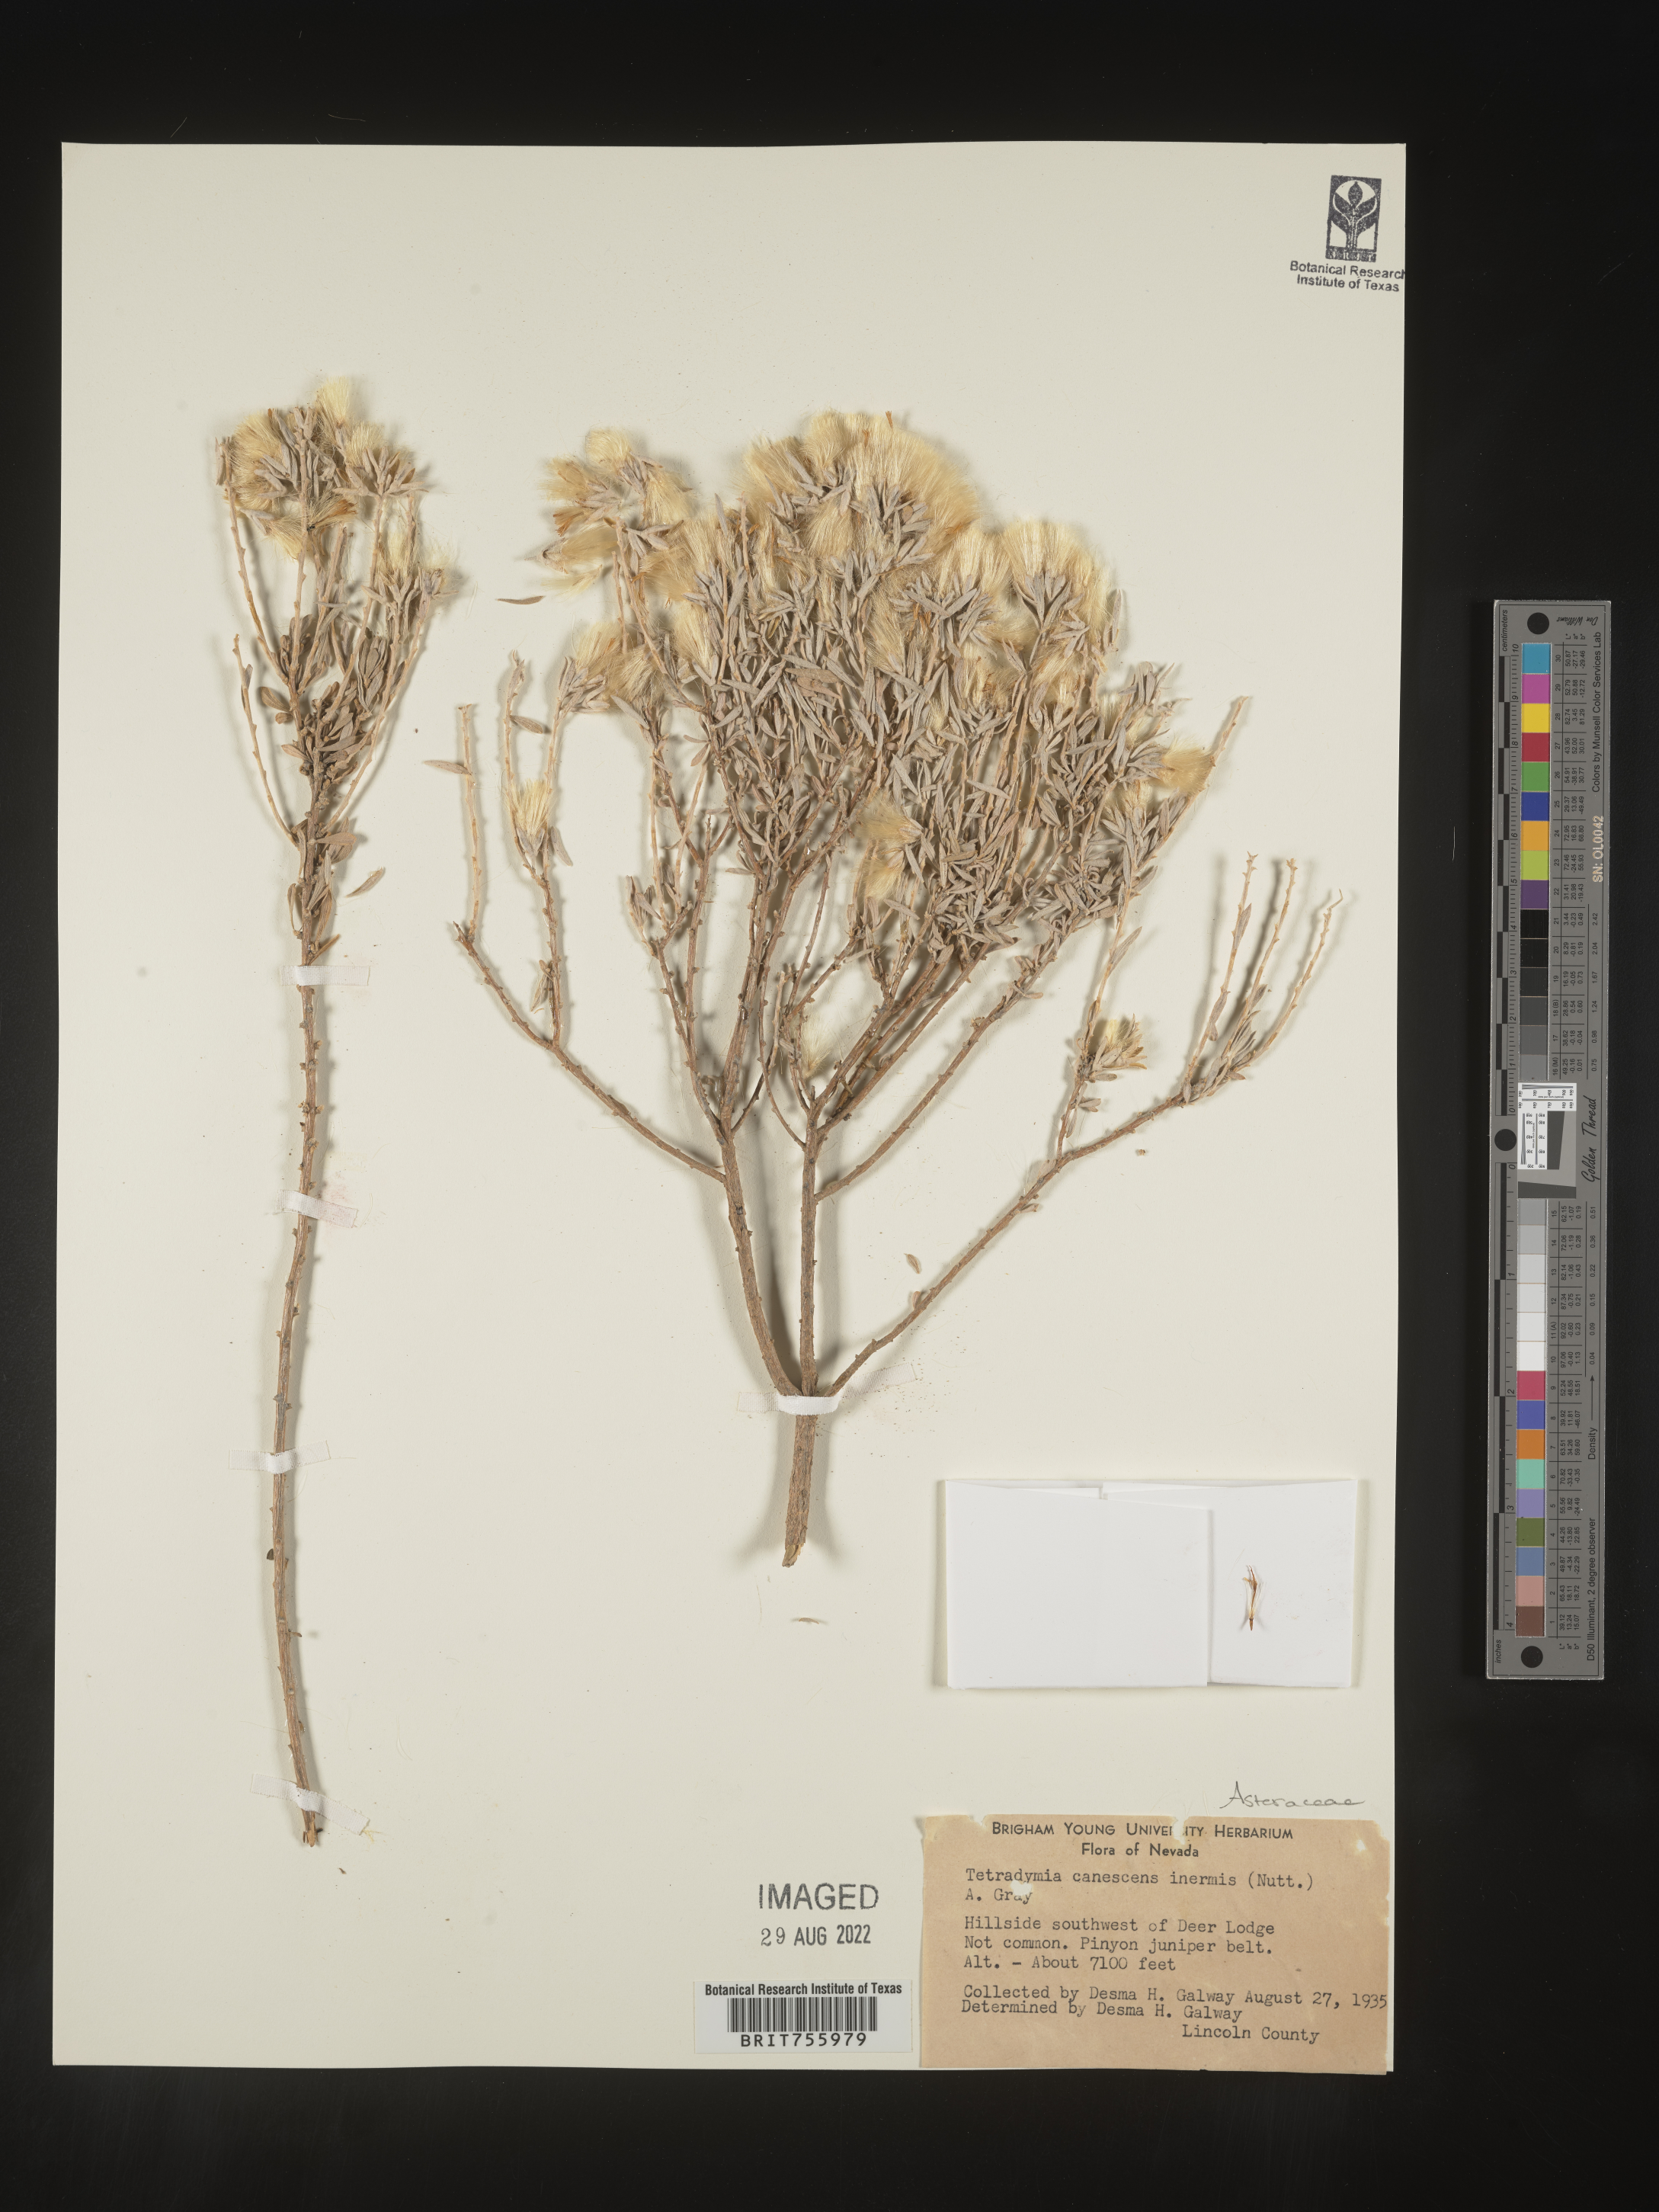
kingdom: Plantae
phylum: Tracheophyta
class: Magnoliopsida
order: Asterales
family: Asteraceae
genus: Tetradymia
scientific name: Tetradymia canescens
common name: Spineless horsebrush
